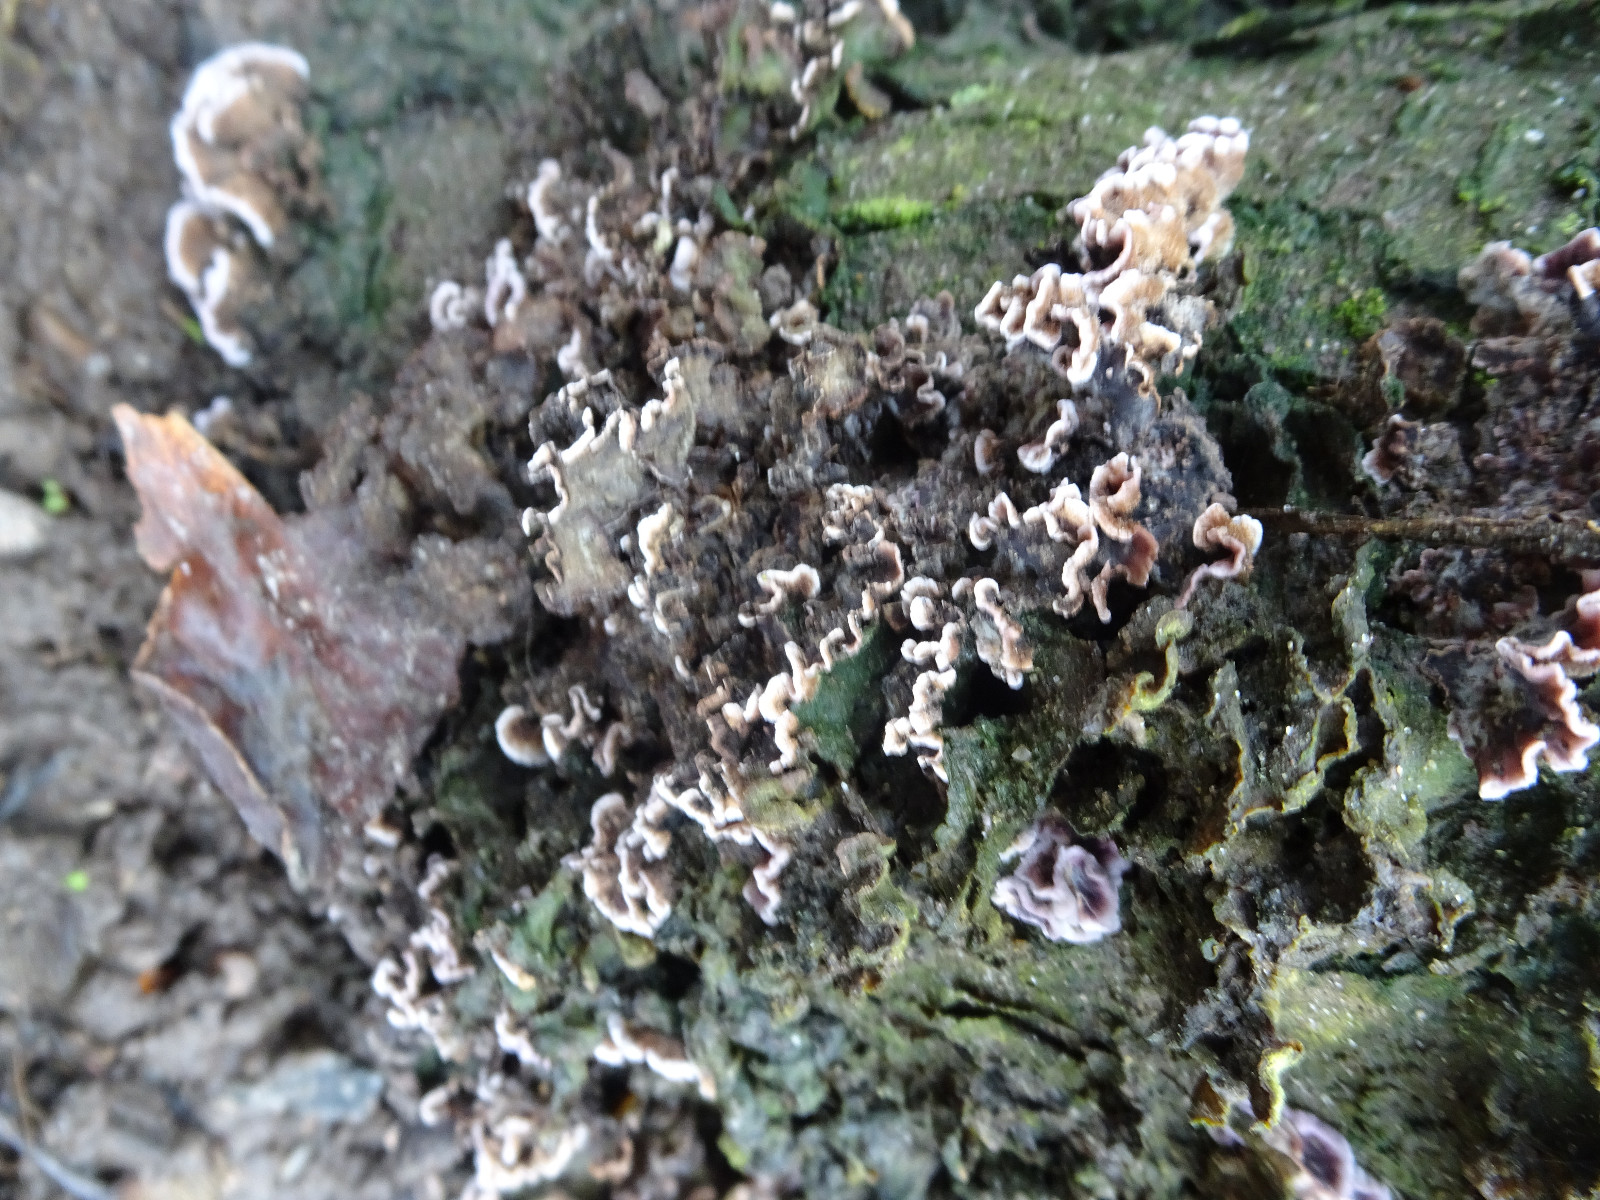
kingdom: Fungi
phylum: Basidiomycota
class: Agaricomycetes
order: Agaricales
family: Cyphellaceae
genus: Chondrostereum
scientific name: Chondrostereum purpureum
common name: purpurlædersvamp
